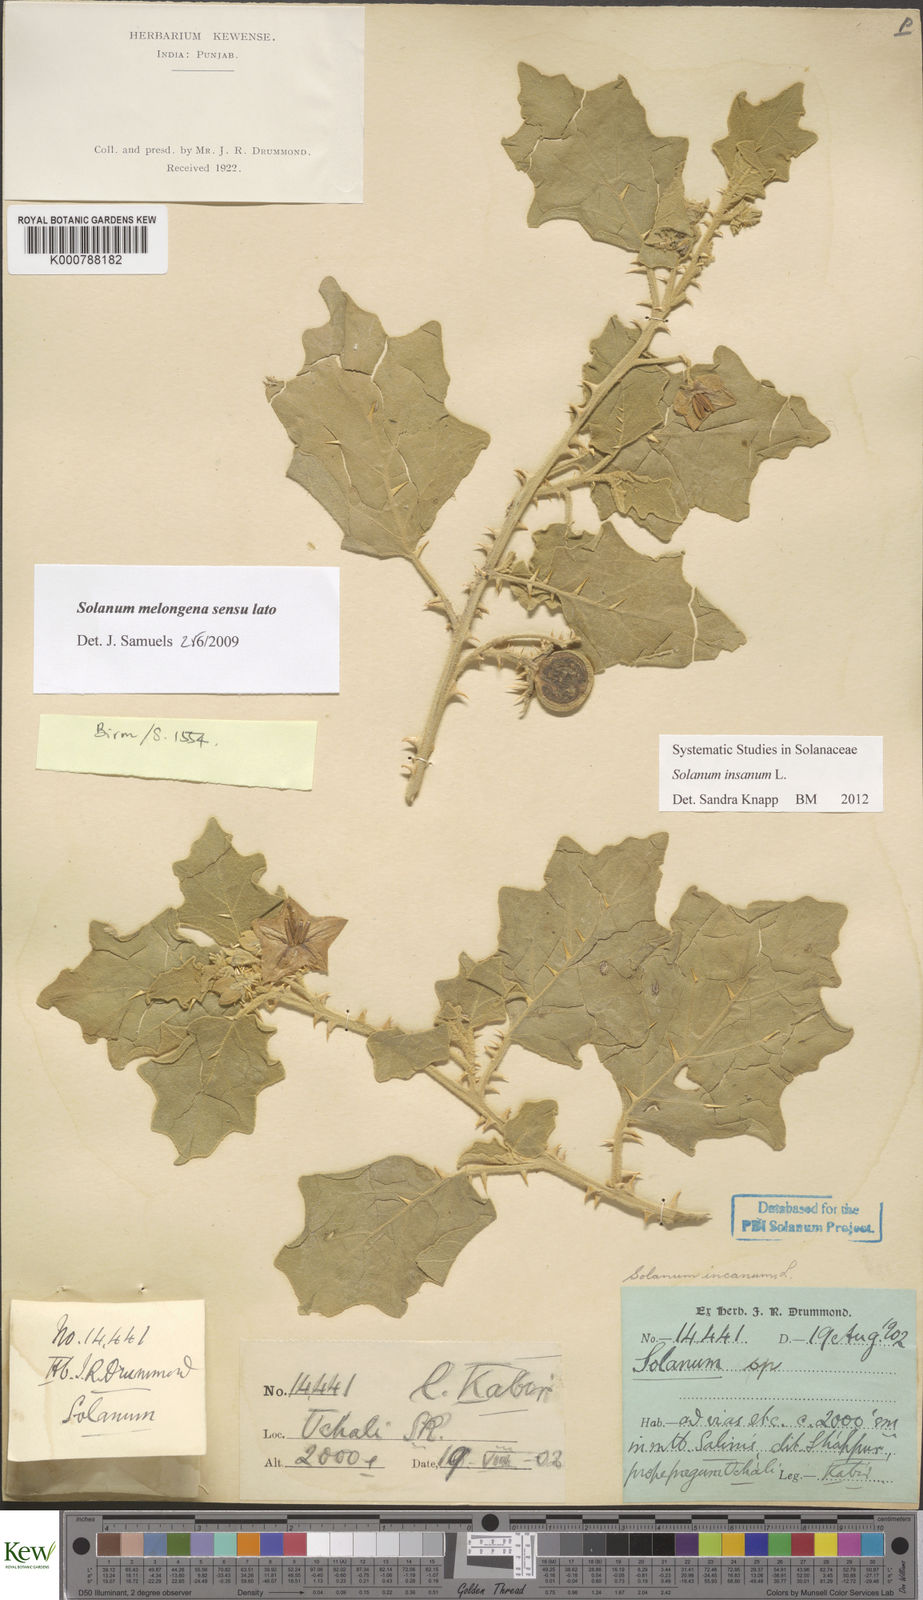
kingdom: Plantae
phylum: Tracheophyta
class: Magnoliopsida
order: Solanales
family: Solanaceae
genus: Solanum
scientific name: Solanum insanum
